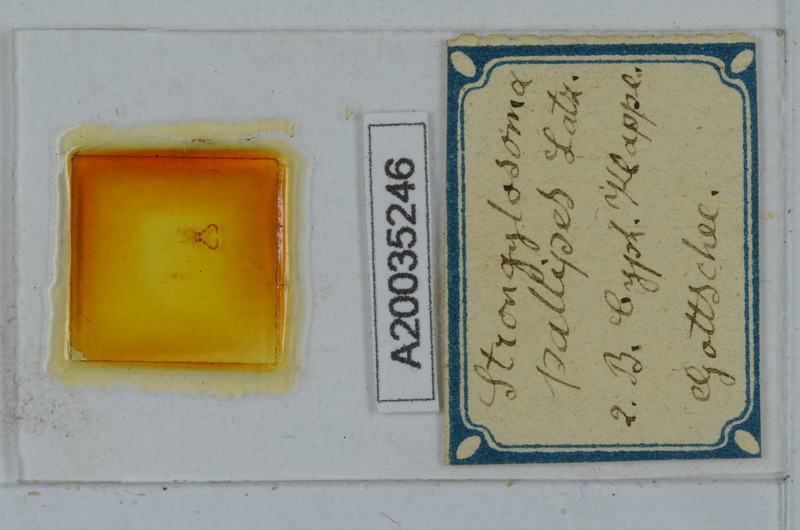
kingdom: Animalia
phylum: Arthropoda
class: Diplopoda
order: Polydesmida
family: Paradoxosomatidae
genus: Strongylosoma
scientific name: Strongylosoma stigmatosus
